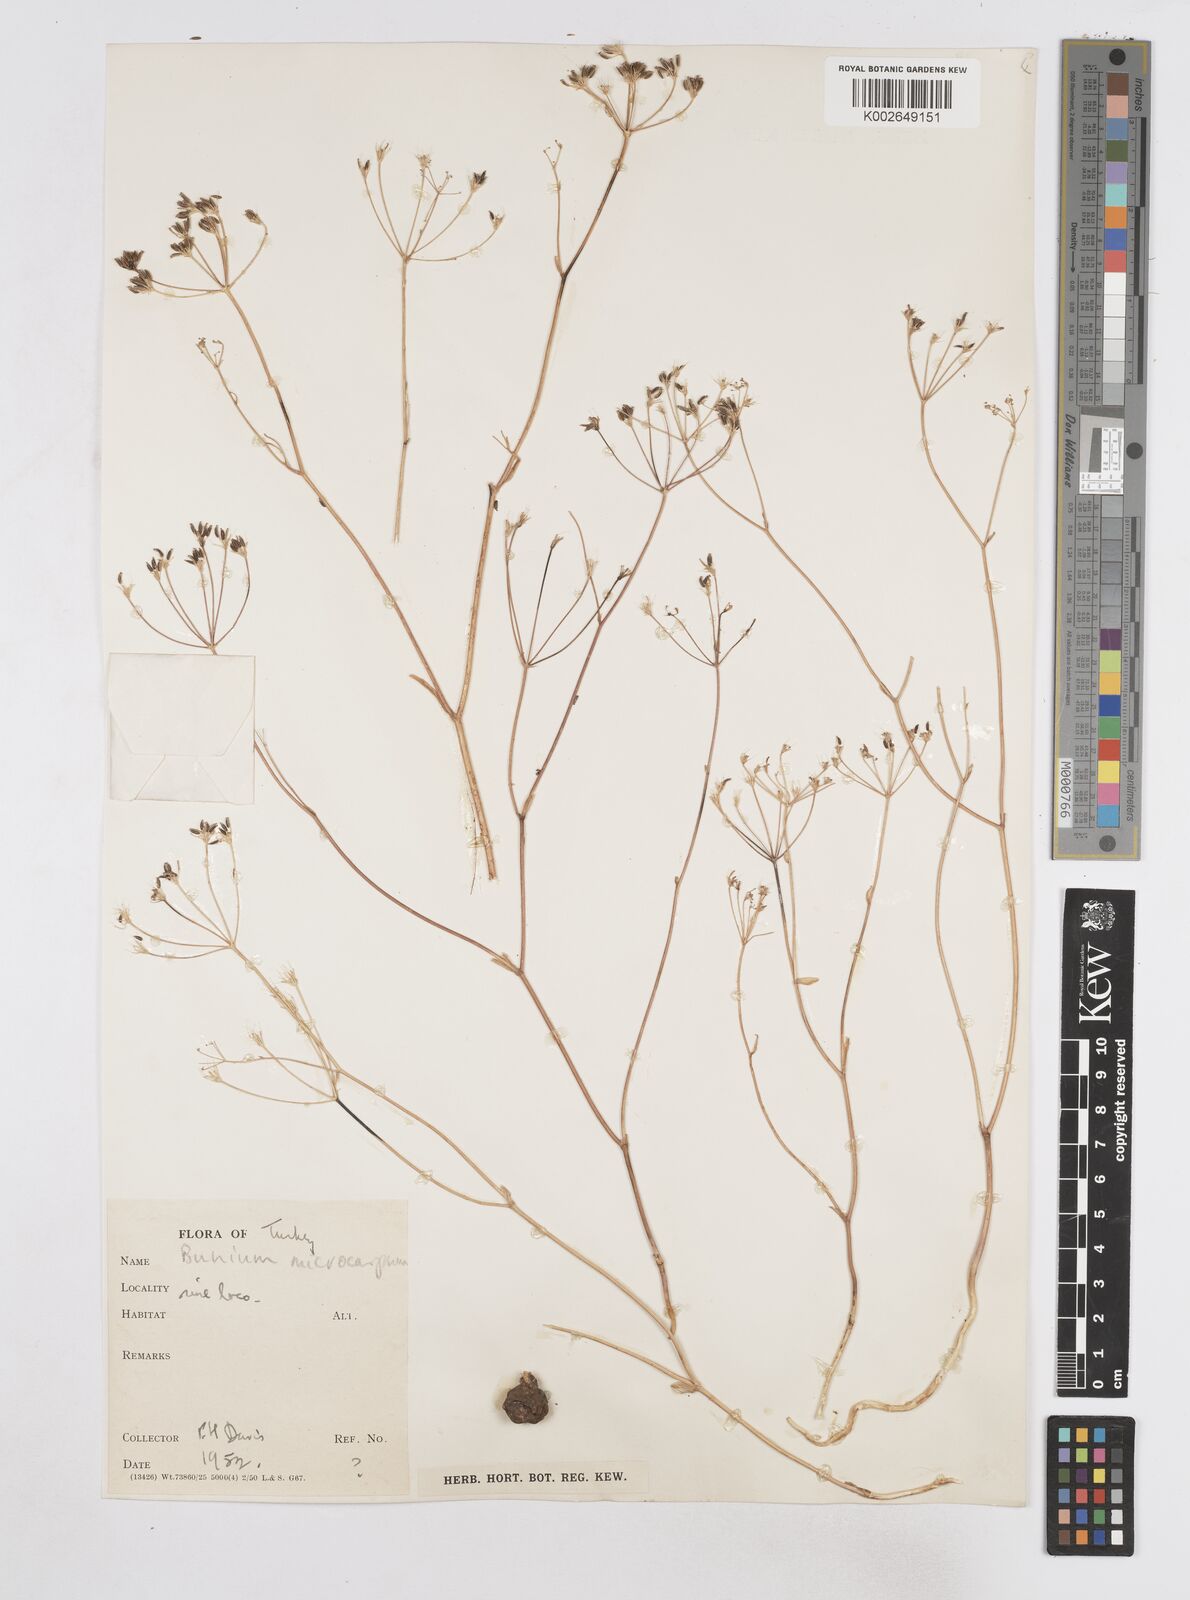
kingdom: Plantae
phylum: Tracheophyta
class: Magnoliopsida
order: Apiales
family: Apiaceae
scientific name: Apiaceae
